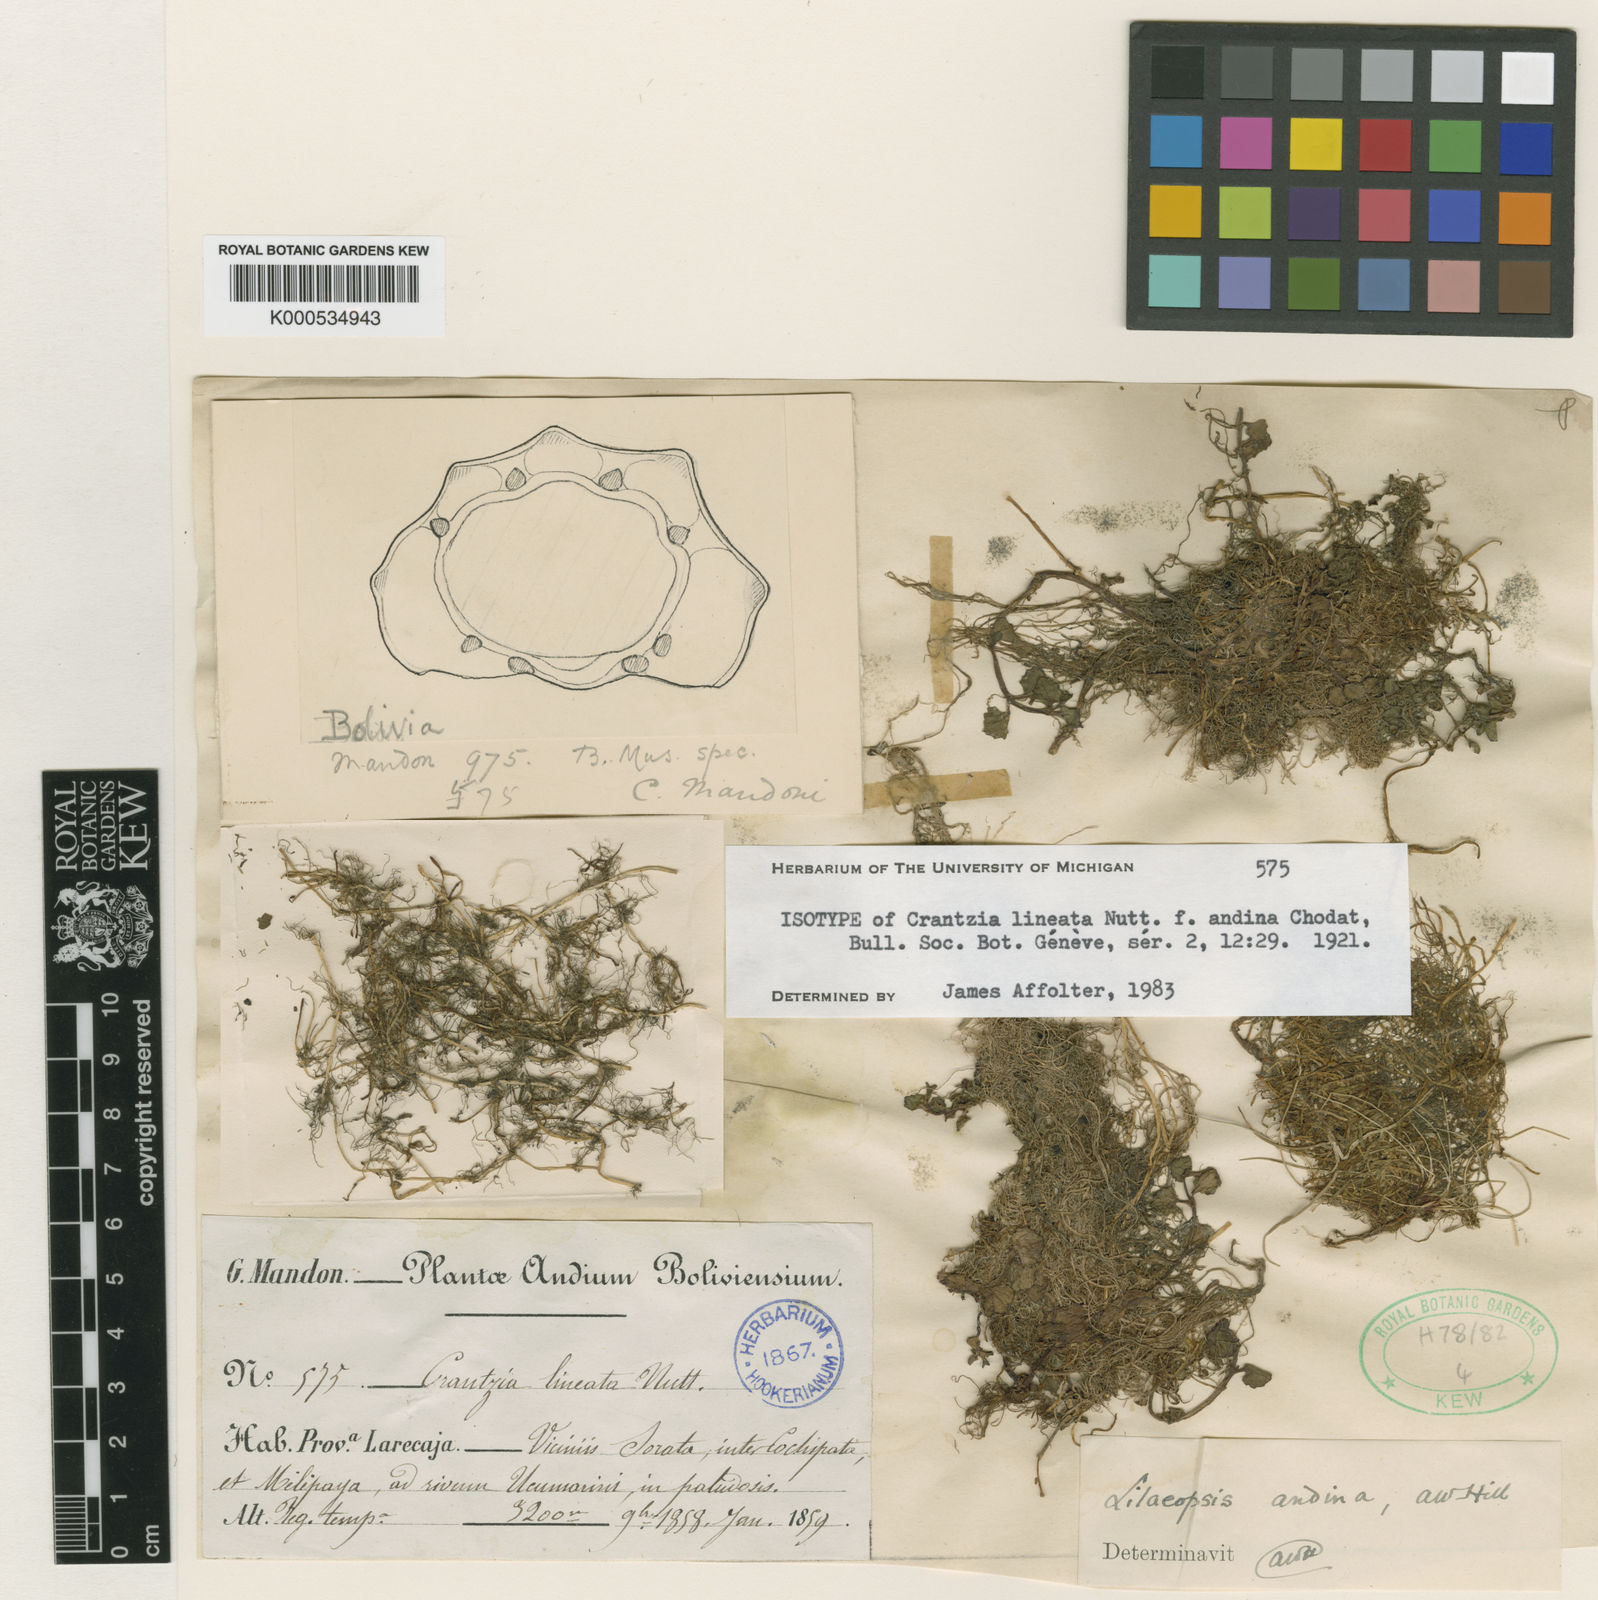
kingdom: Plantae
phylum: Tracheophyta
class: Magnoliopsida
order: Apiales
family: Apiaceae
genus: Lilaeopsis
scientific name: Lilaeopsis chinensis
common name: Eastern grasswort
